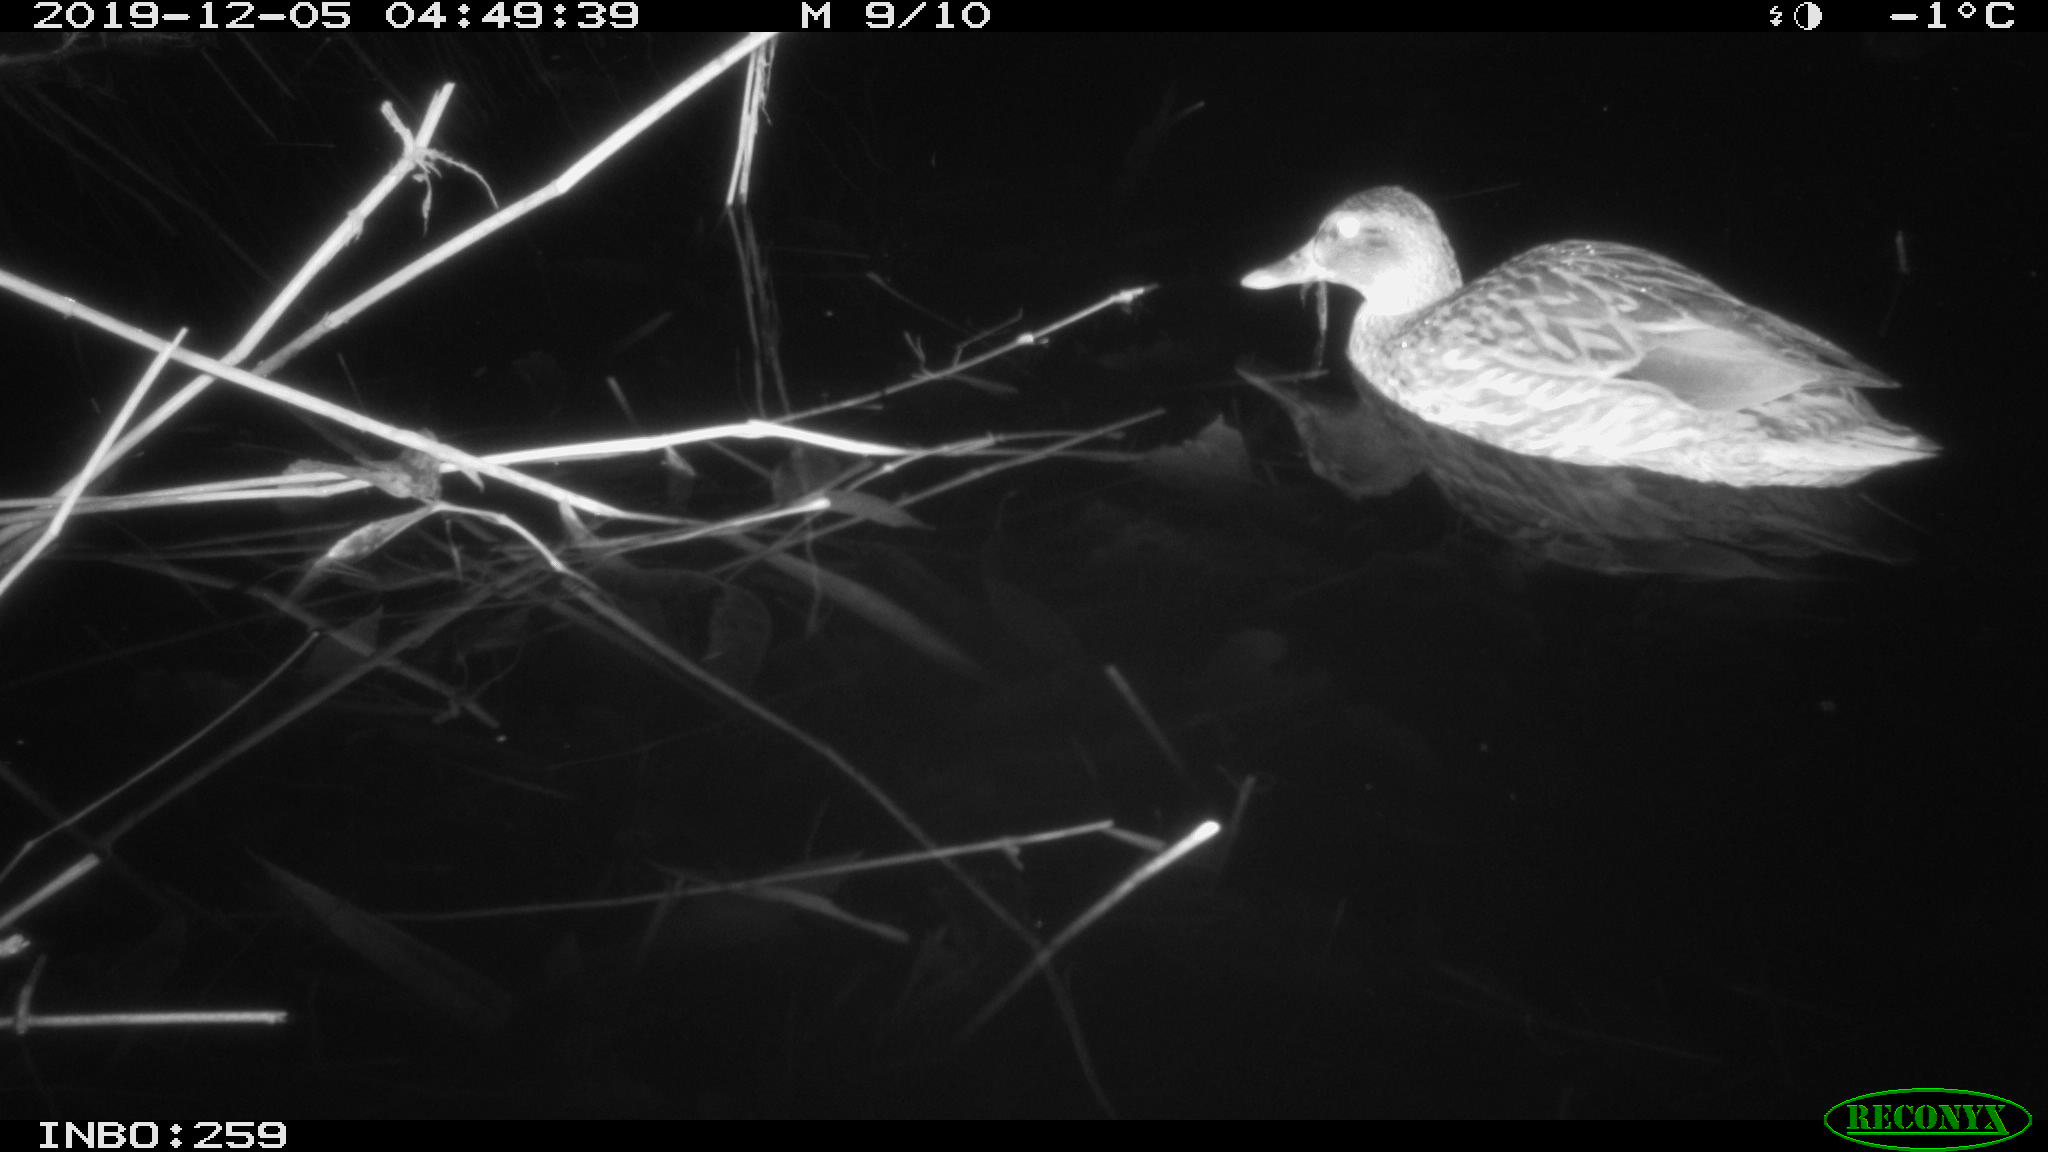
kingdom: Animalia
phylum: Chordata
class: Aves
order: Anseriformes
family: Anatidae
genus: Anas
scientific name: Anas platyrhynchos
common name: Mallard
